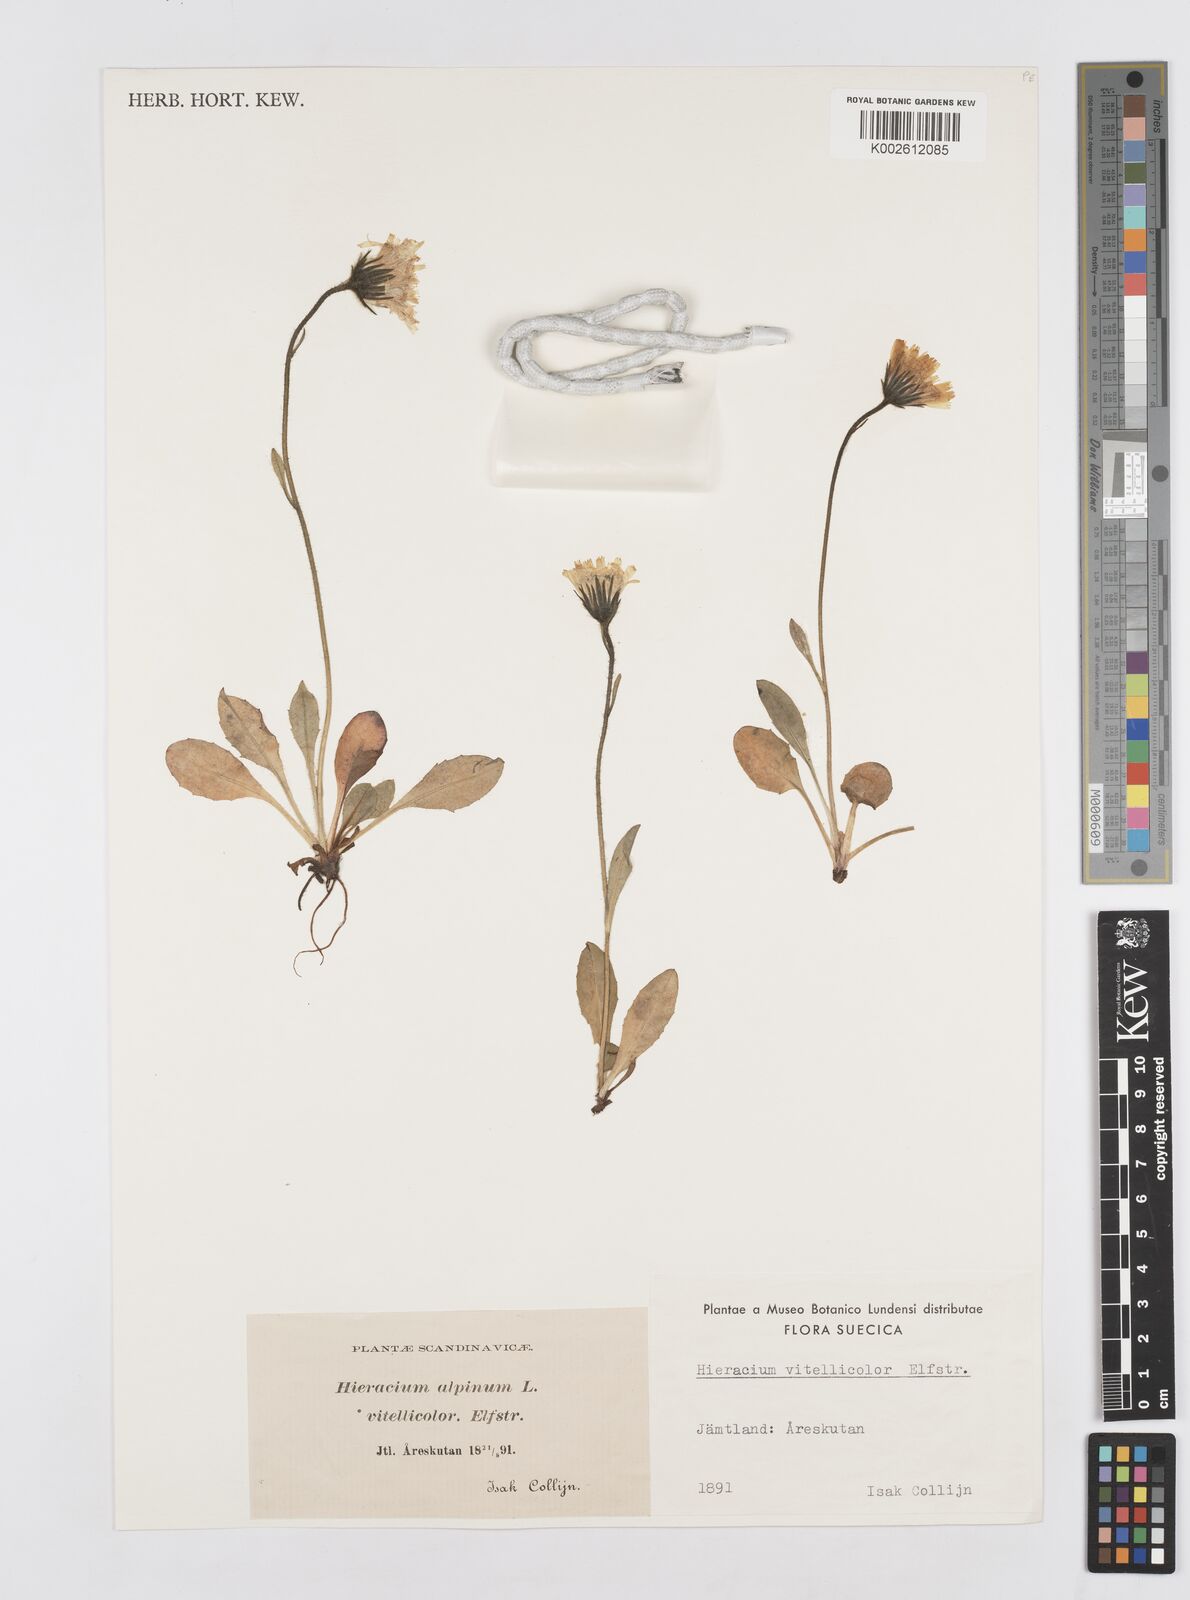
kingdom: Plantae
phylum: Tracheophyta
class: Magnoliopsida
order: Asterales
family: Asteraceae
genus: Hieracium
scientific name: Hieracium vitellicolor
